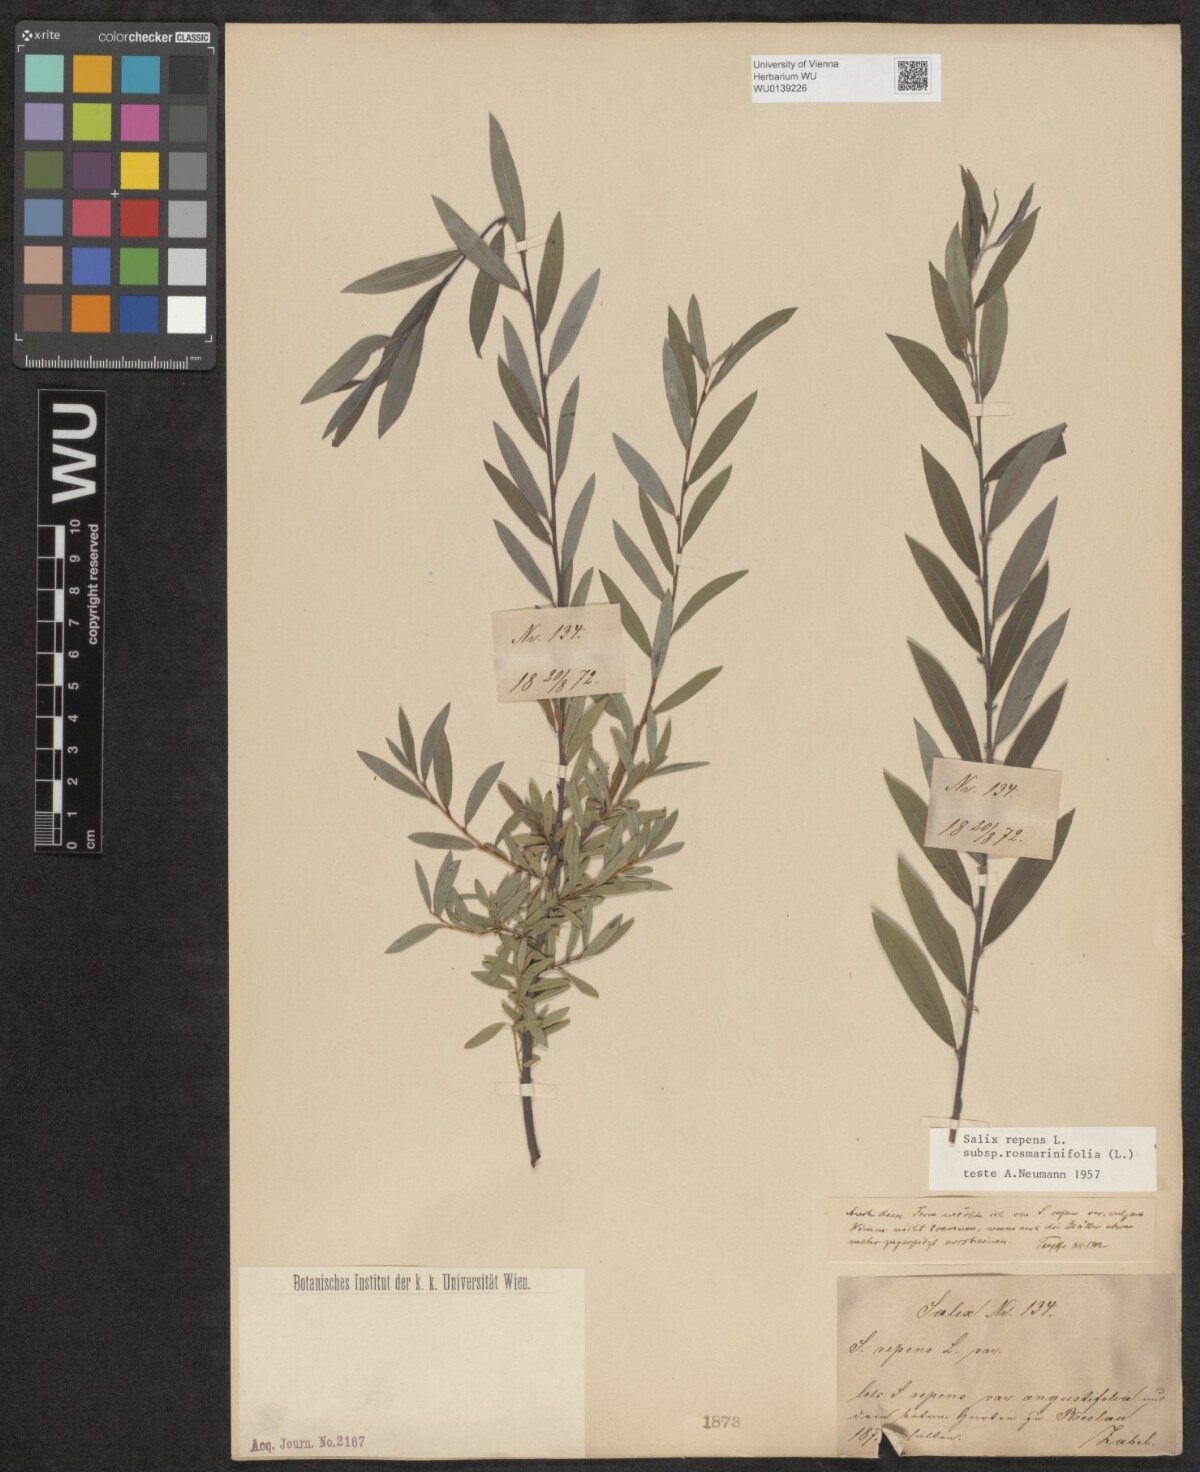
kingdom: Plantae
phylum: Tracheophyta
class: Magnoliopsida
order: Malpighiales
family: Salicaceae
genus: Salix
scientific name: Salix repens
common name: Creeping willow
